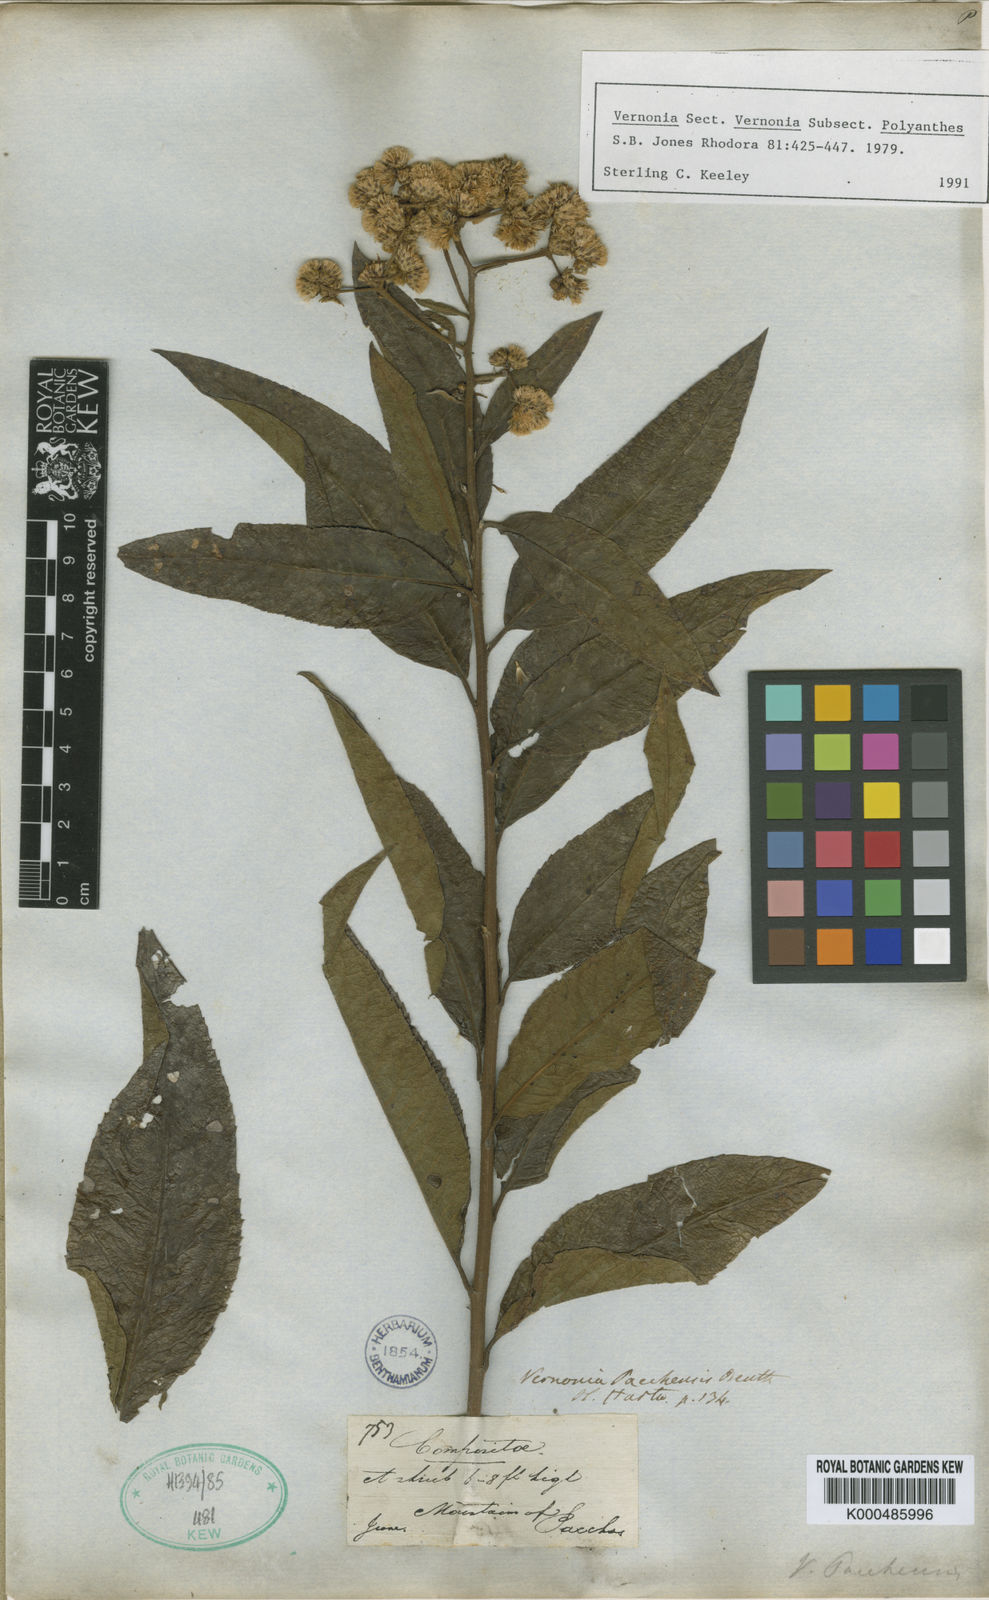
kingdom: Plantae
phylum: Tracheophyta
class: Magnoliopsida
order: Asterales
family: Asteraceae
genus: Vernonanthura
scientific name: Vernonanthura patens
